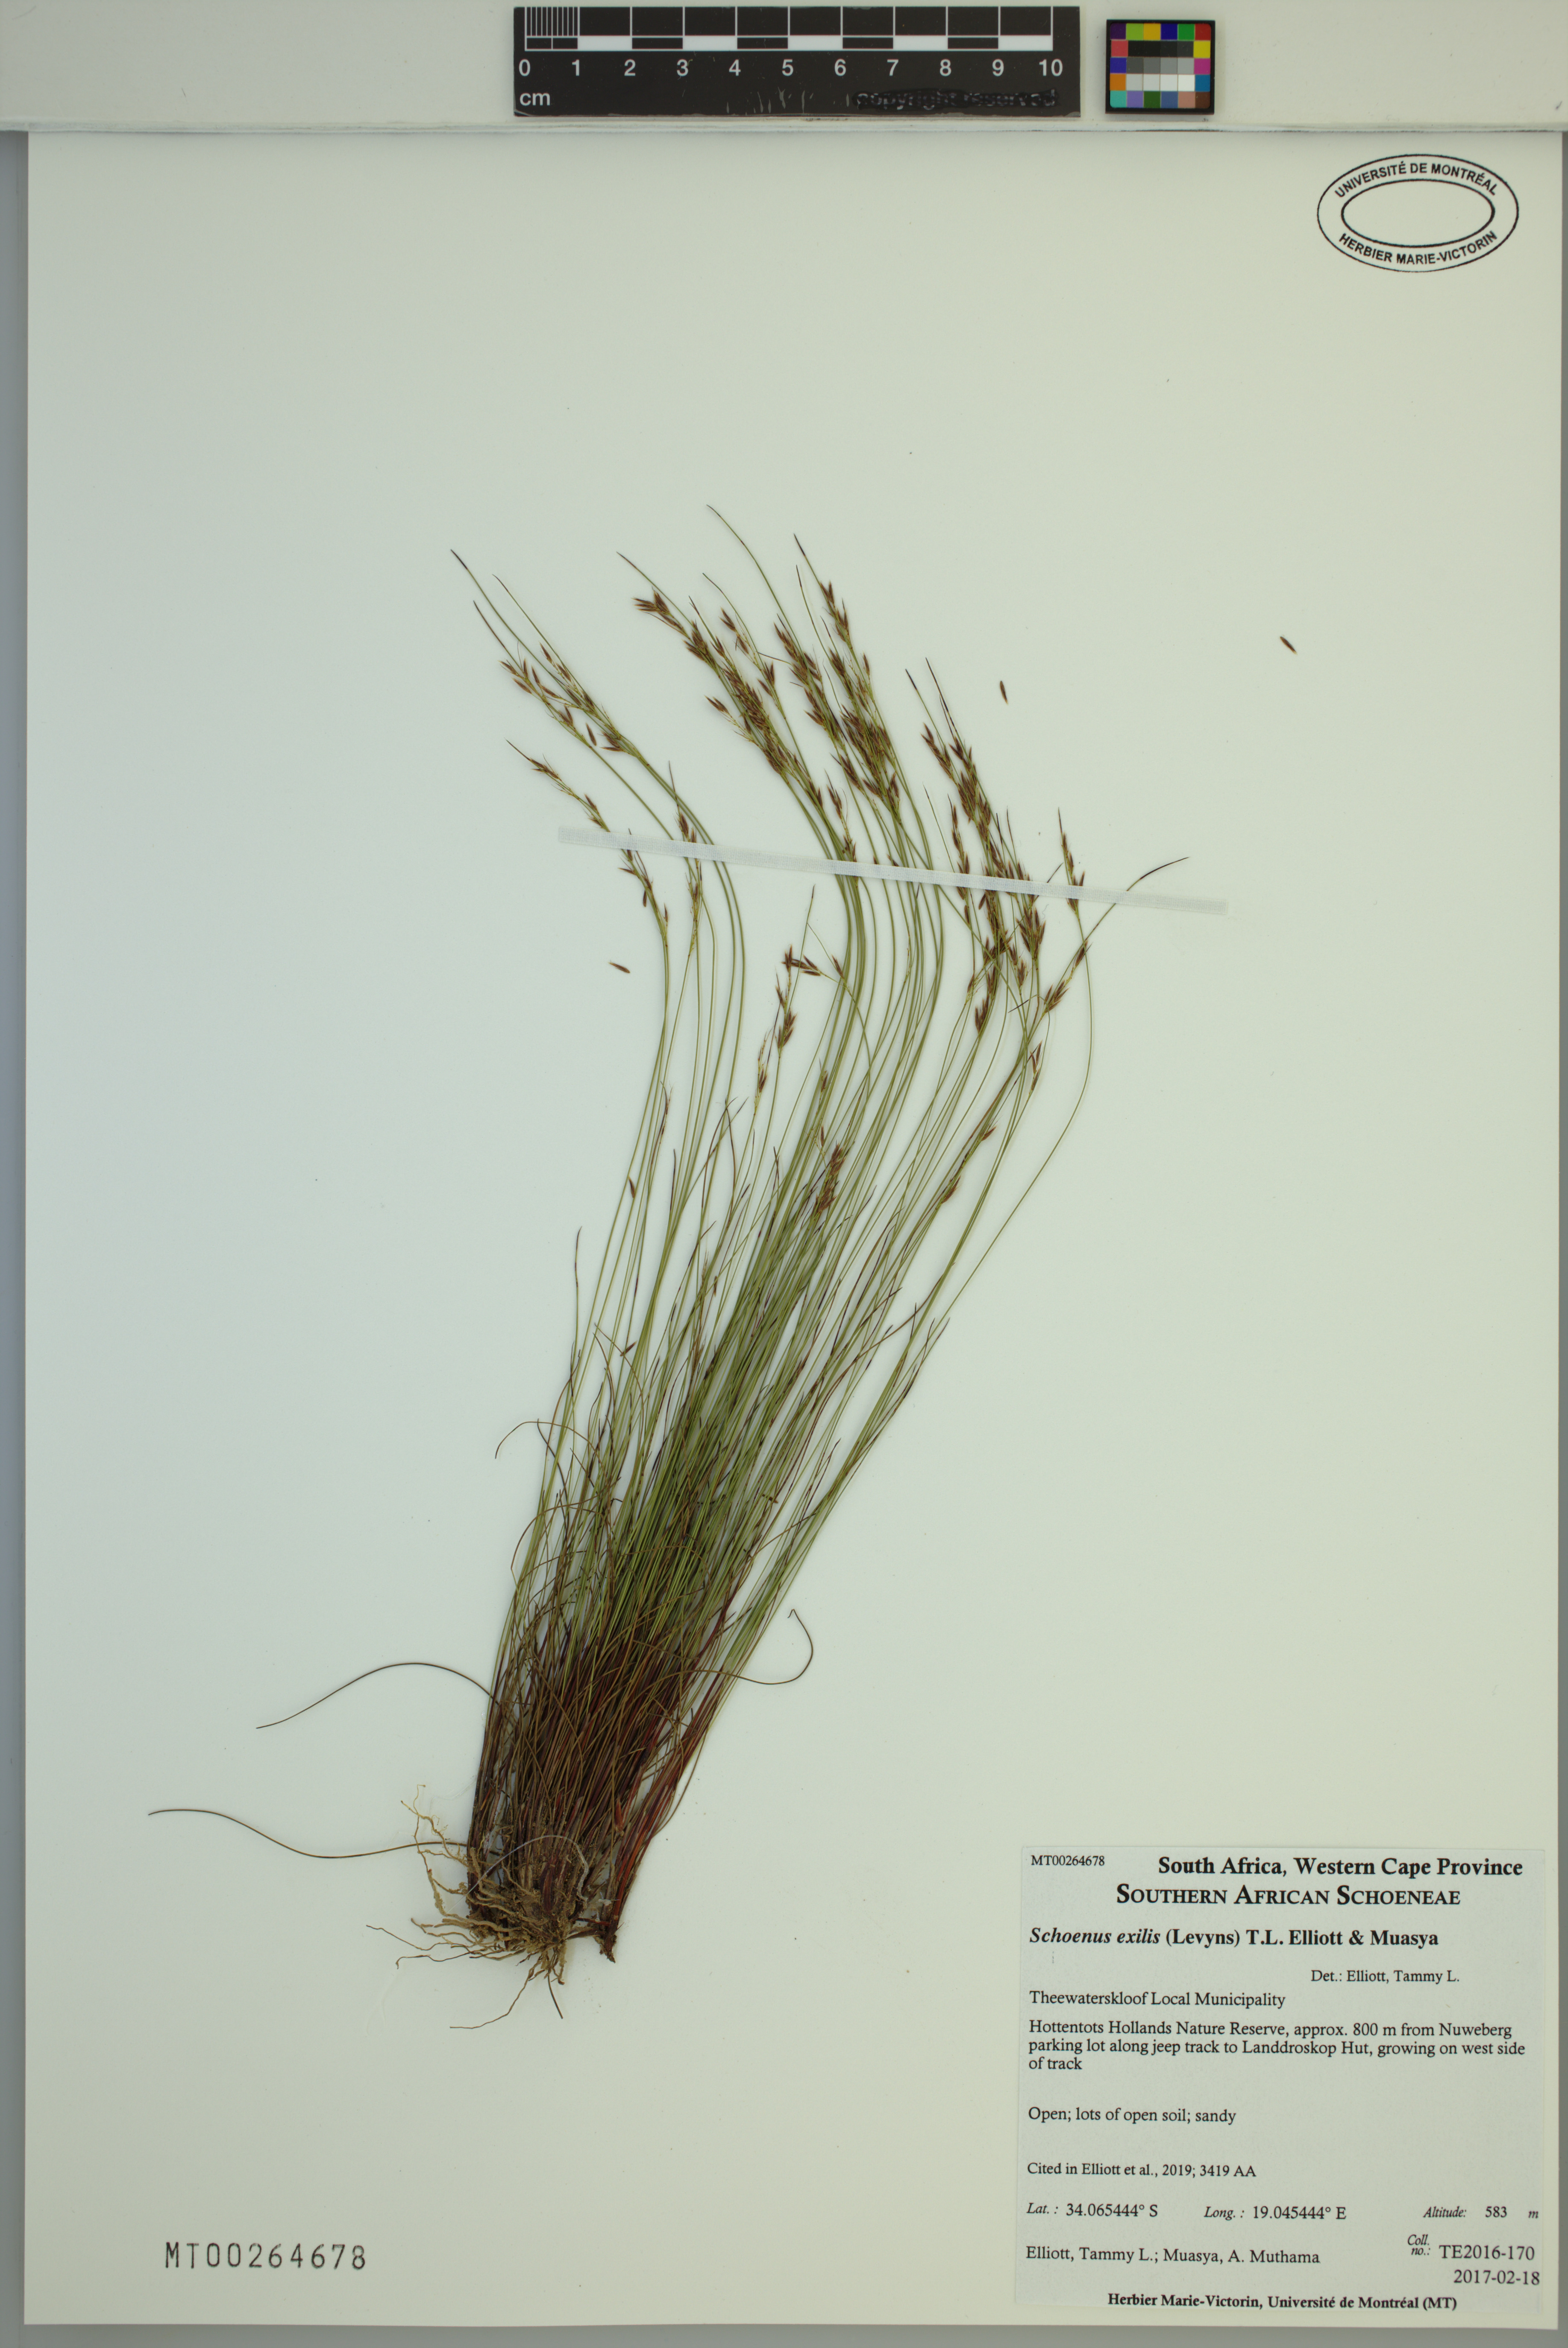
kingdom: Plantae
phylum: Tracheophyta
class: Liliopsida
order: Poales
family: Cyperaceae
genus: Schoenus
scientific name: Schoenus exilis
